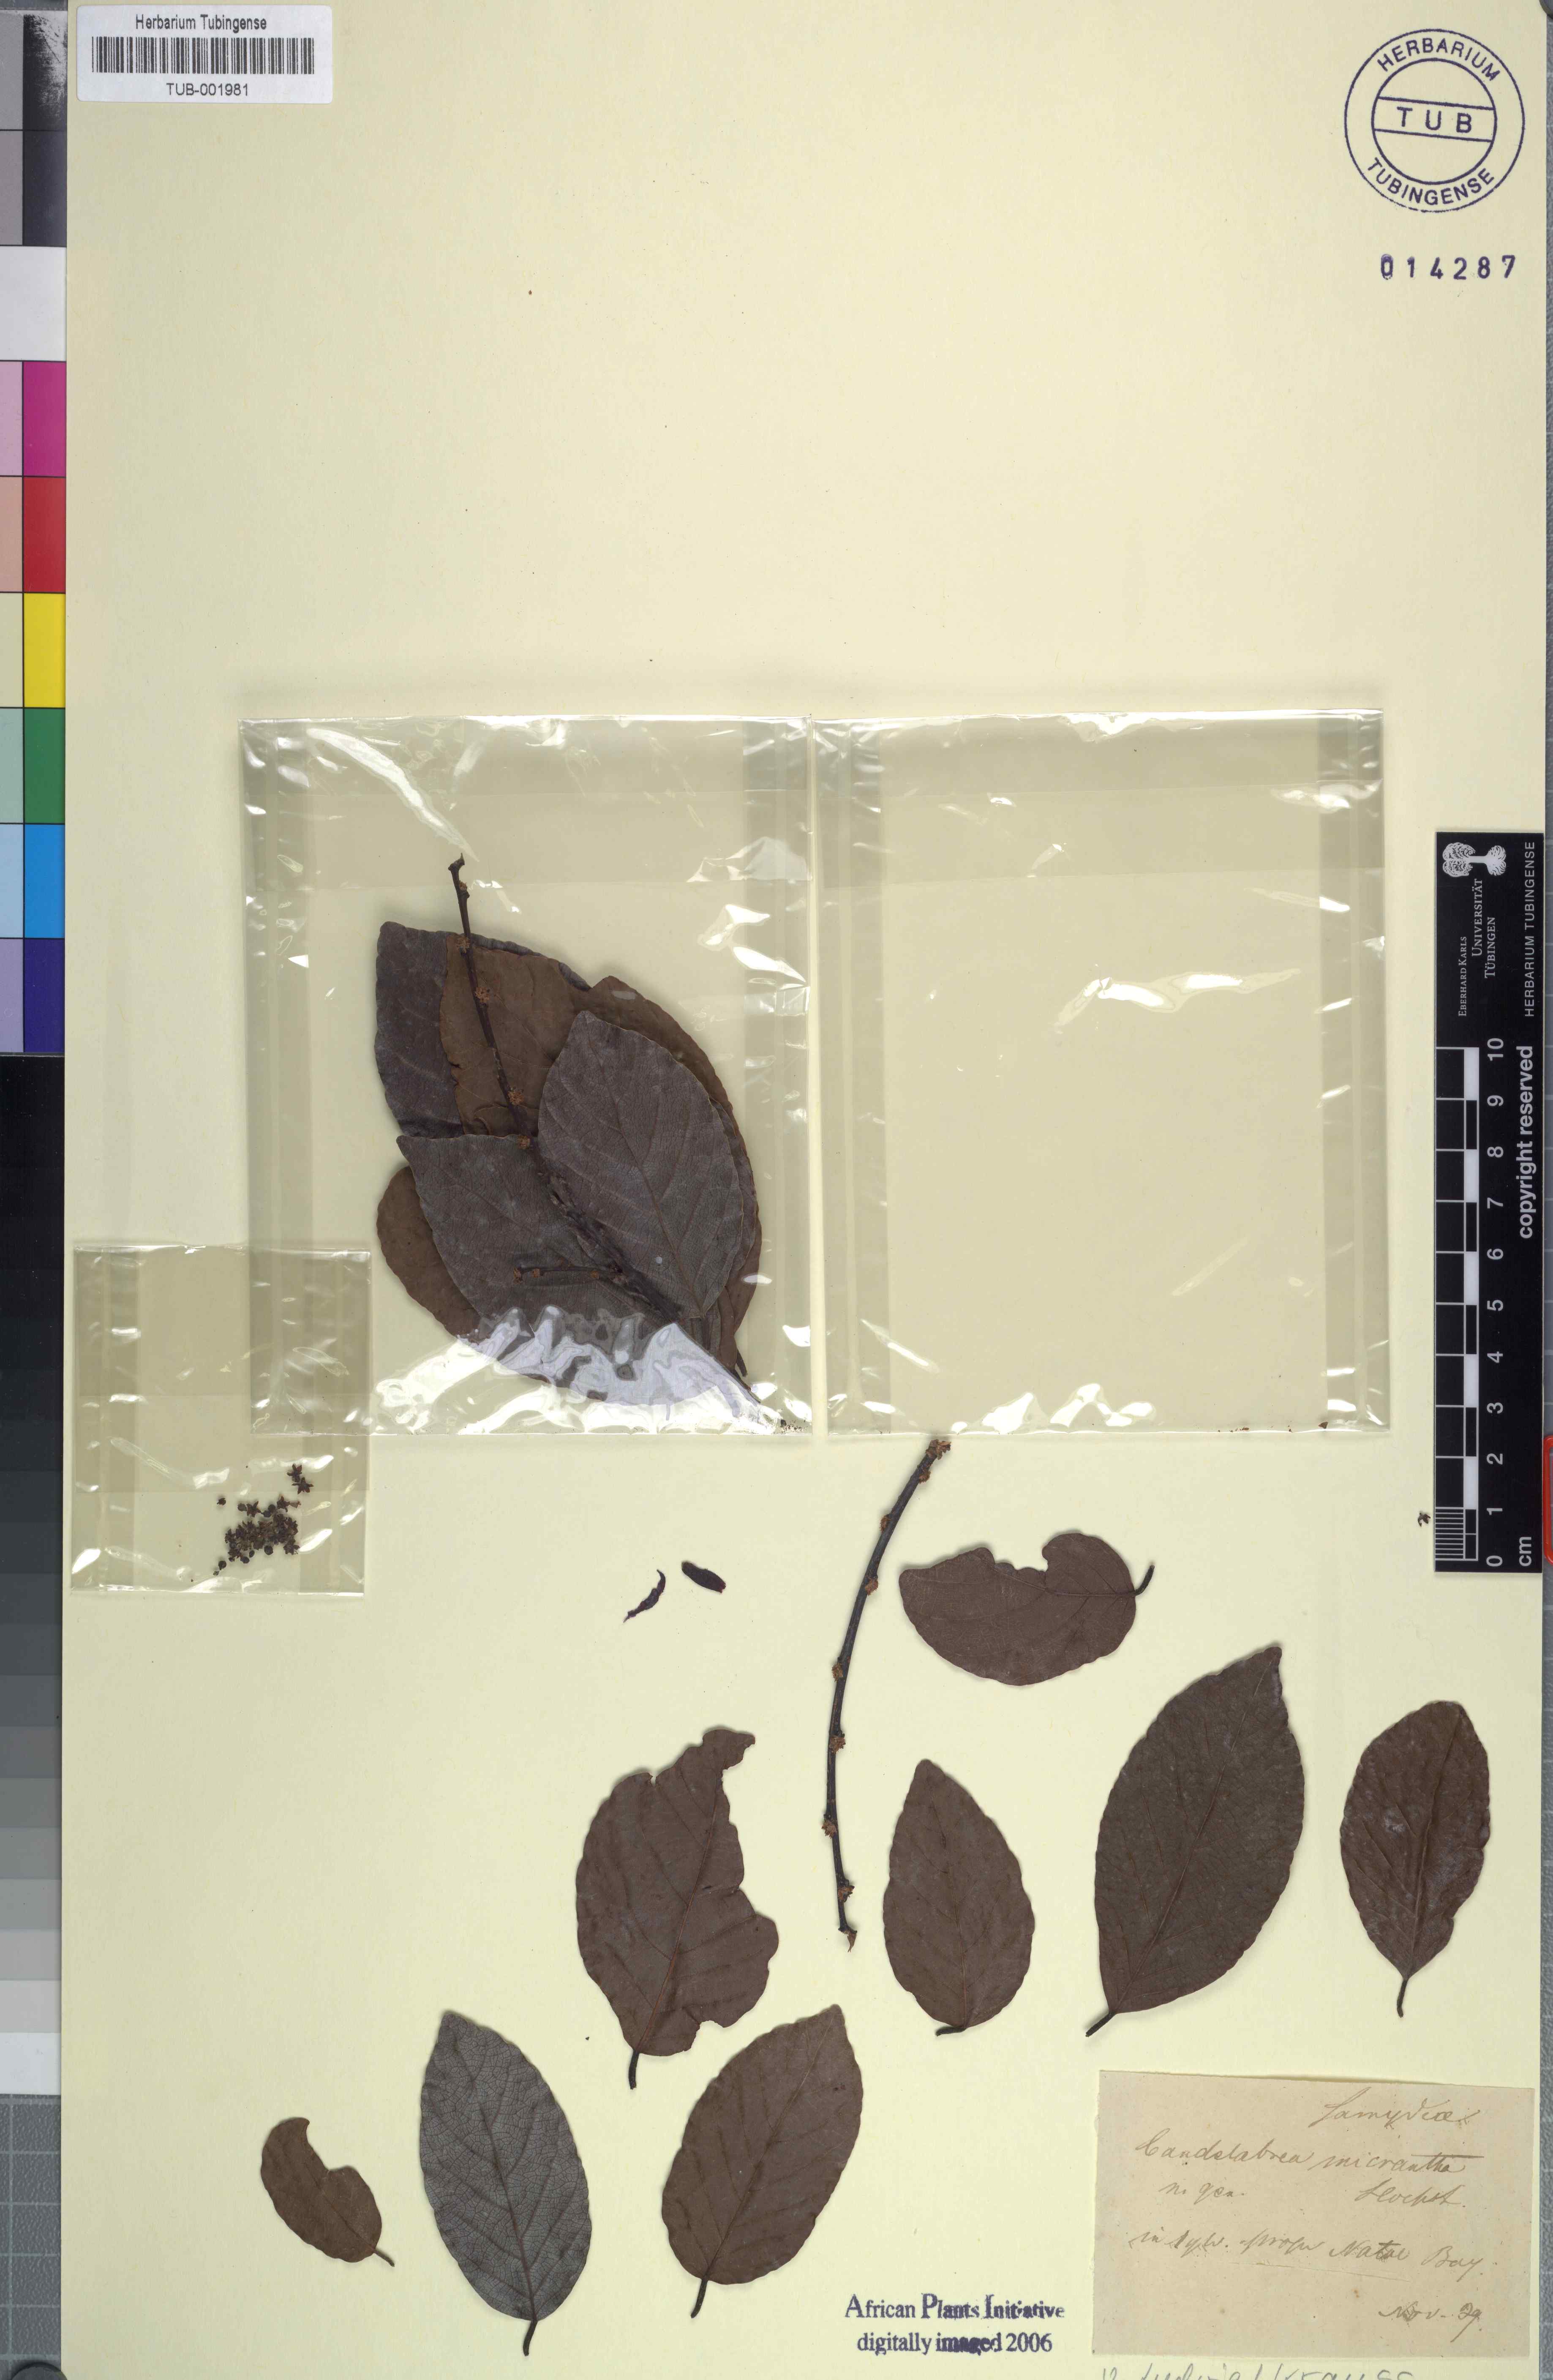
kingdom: Plantae
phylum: Tracheophyta
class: Magnoliopsida
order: Malpighiales
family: Phyllanthaceae
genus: Bridelia
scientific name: Bridelia micrantha
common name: Bridelia
